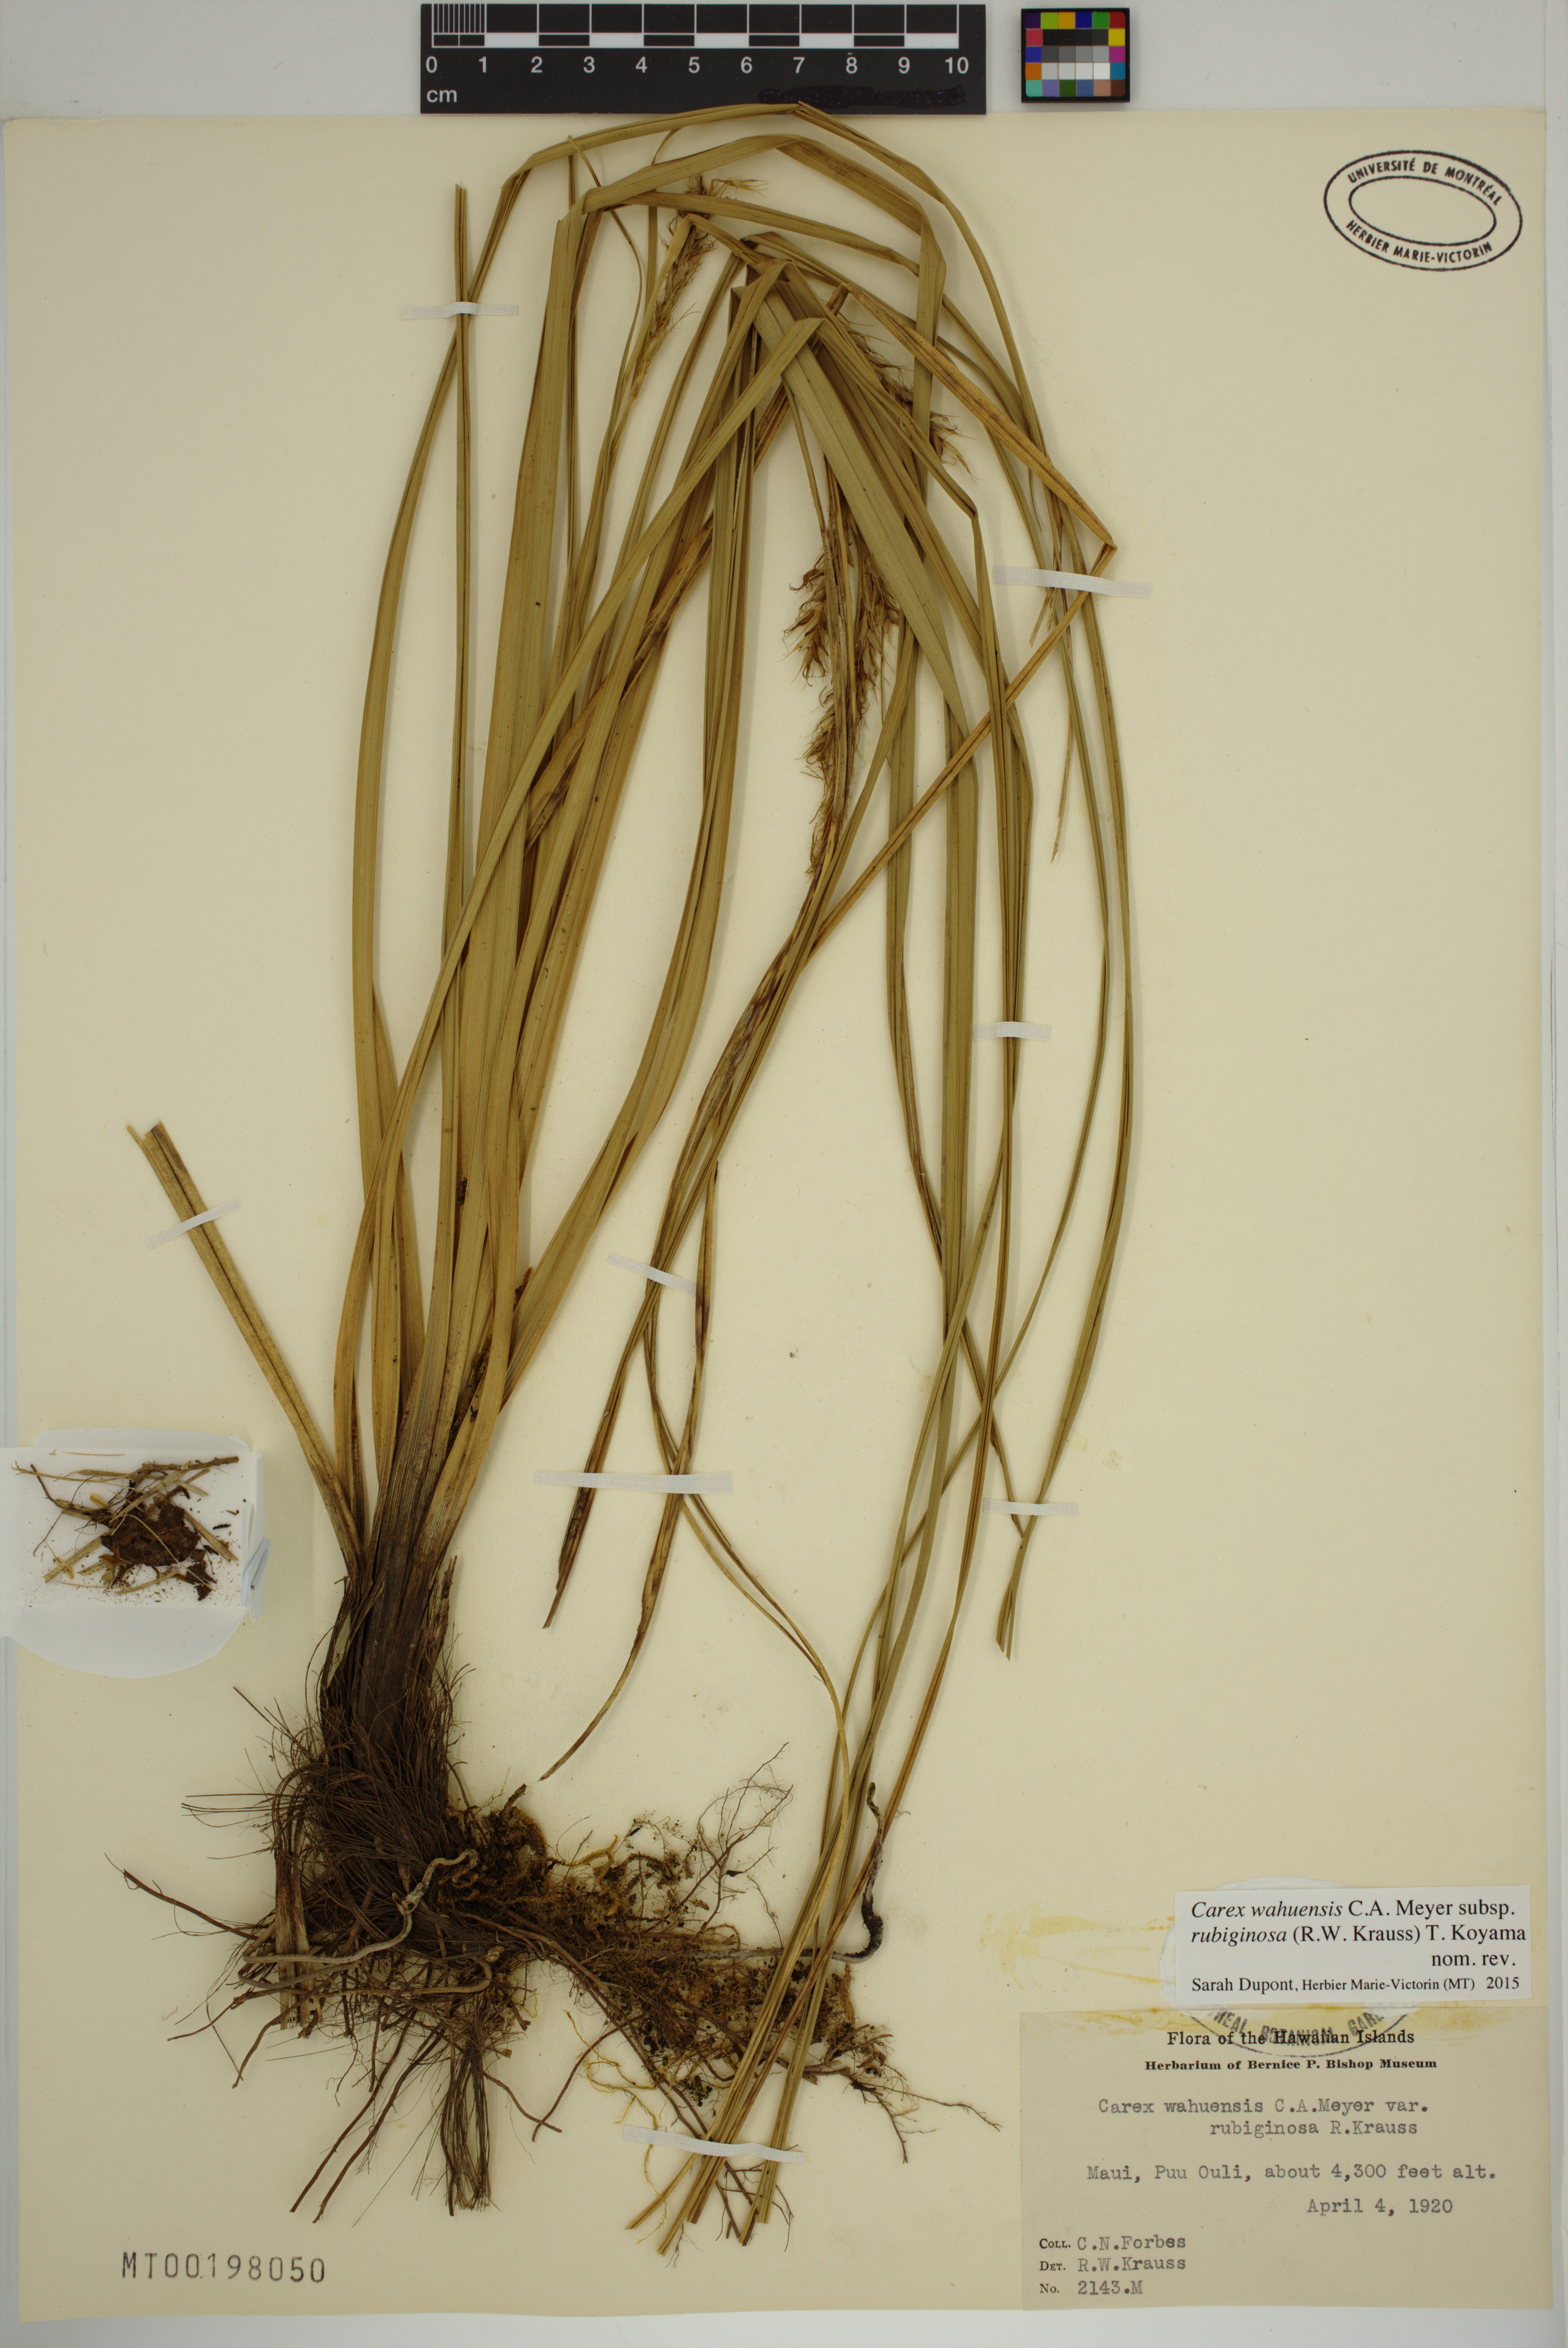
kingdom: Plantae
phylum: Tracheophyta
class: Liliopsida
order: Poales
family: Cyperaceae
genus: Carex
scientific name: Carex wahuensis
